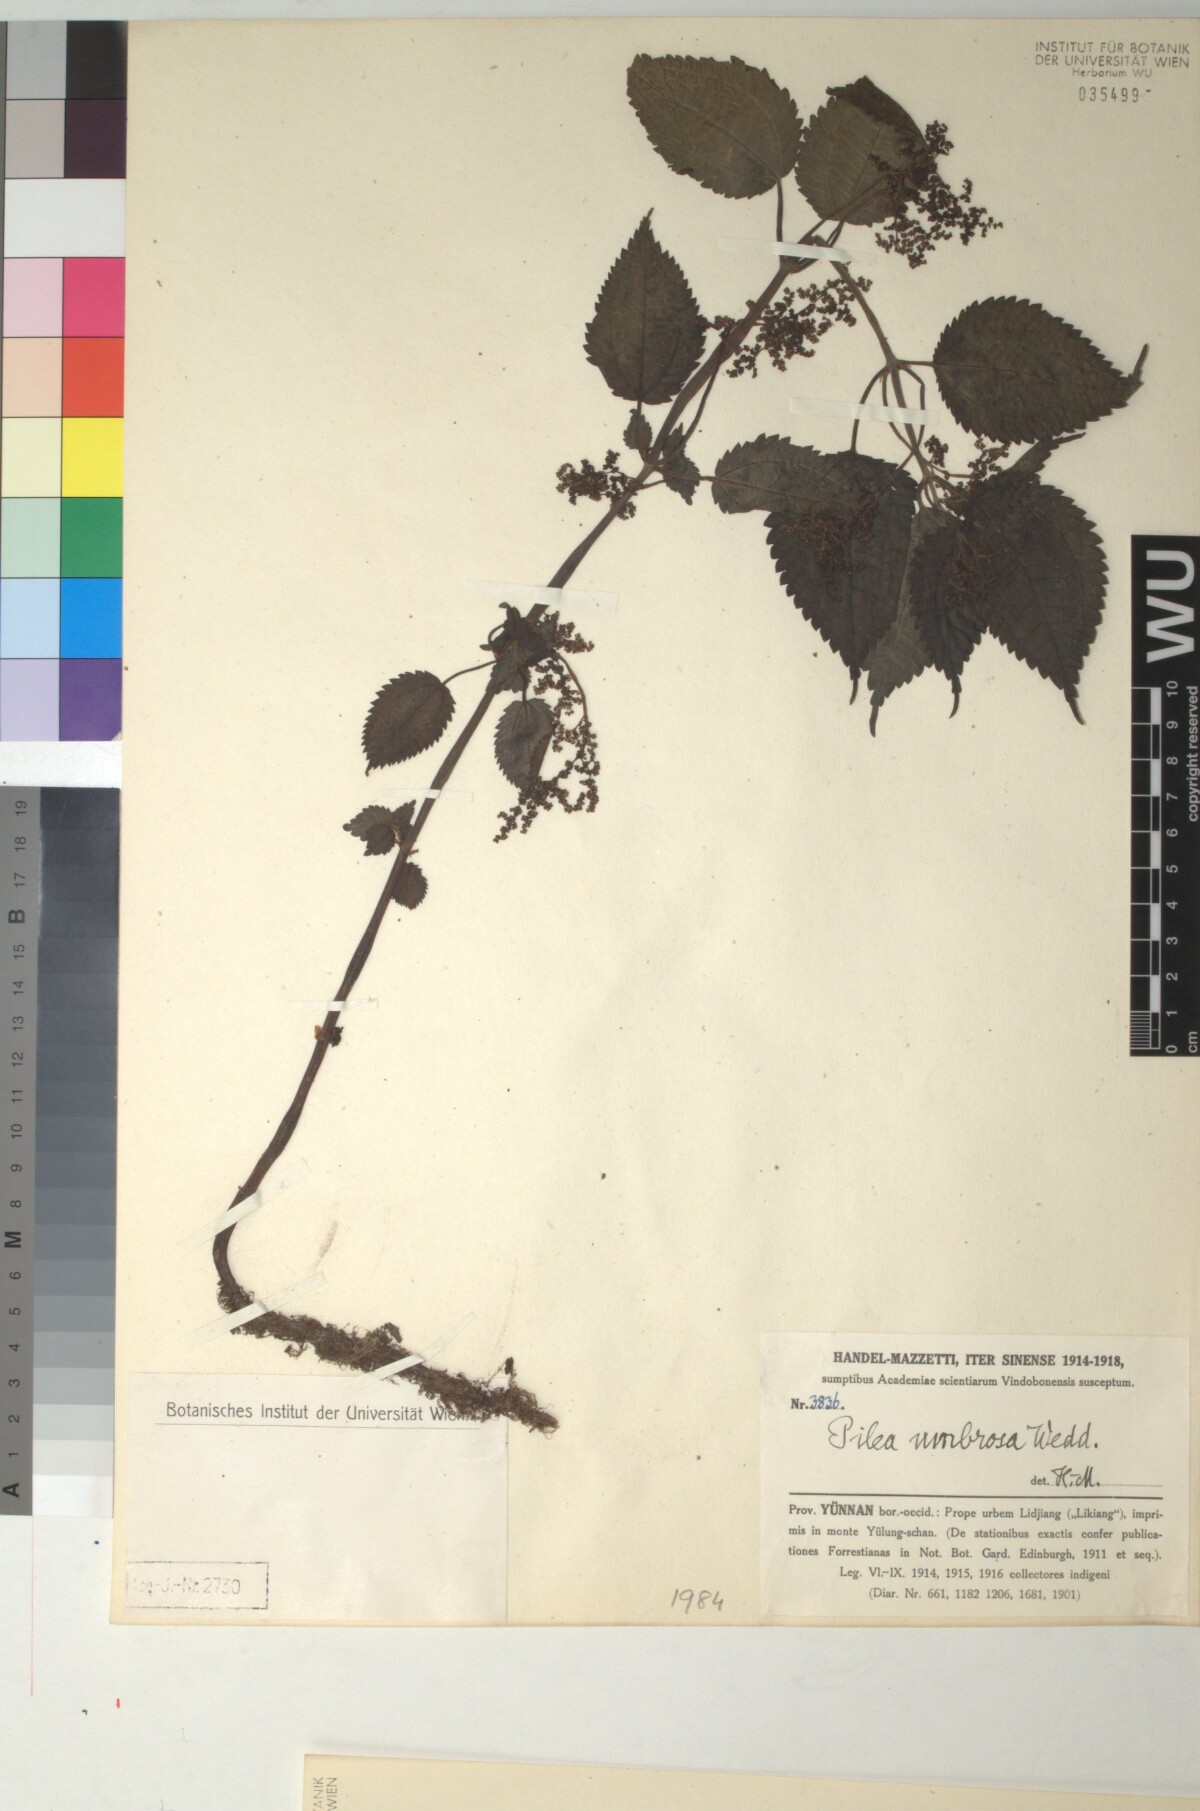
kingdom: Plantae
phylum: Tracheophyta
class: Magnoliopsida
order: Rosales
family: Urticaceae
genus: Pilea
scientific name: Pilea umbrosa
